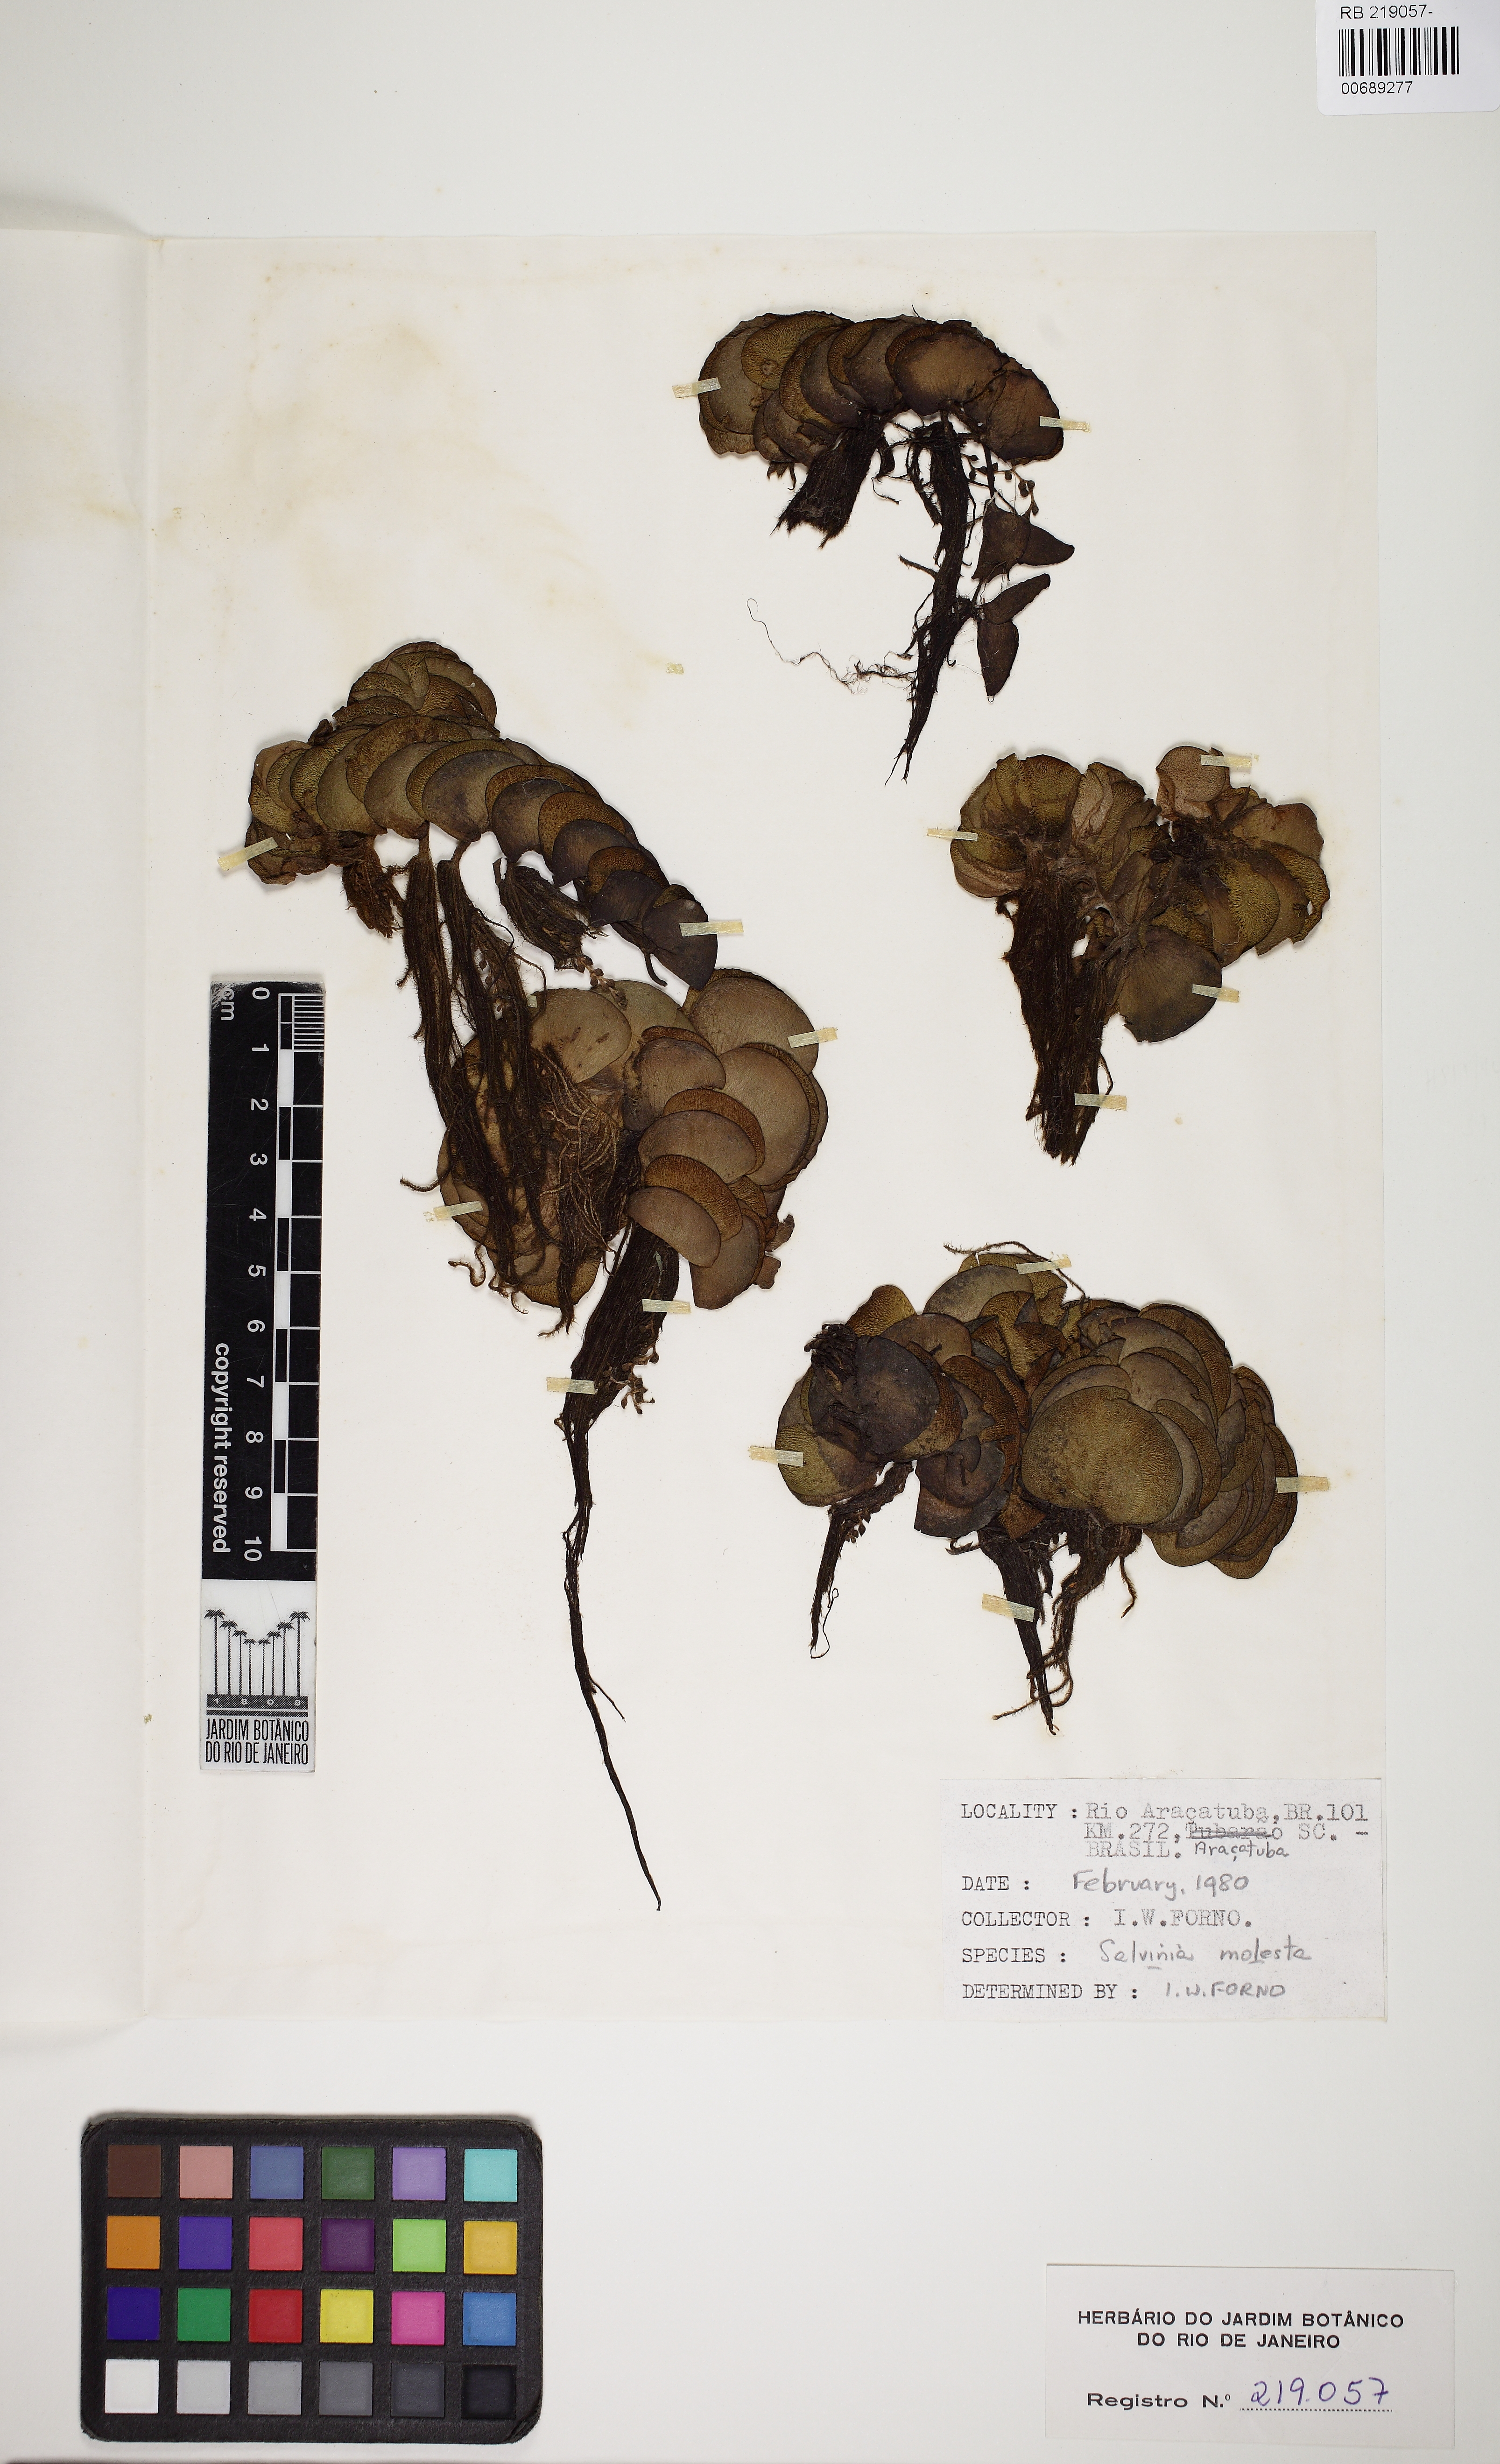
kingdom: Plantae
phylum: Tracheophyta
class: Polypodiopsida
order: Salviniales
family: Salviniaceae
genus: Salvinia
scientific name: Salvinia molesta
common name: Kariba weed
